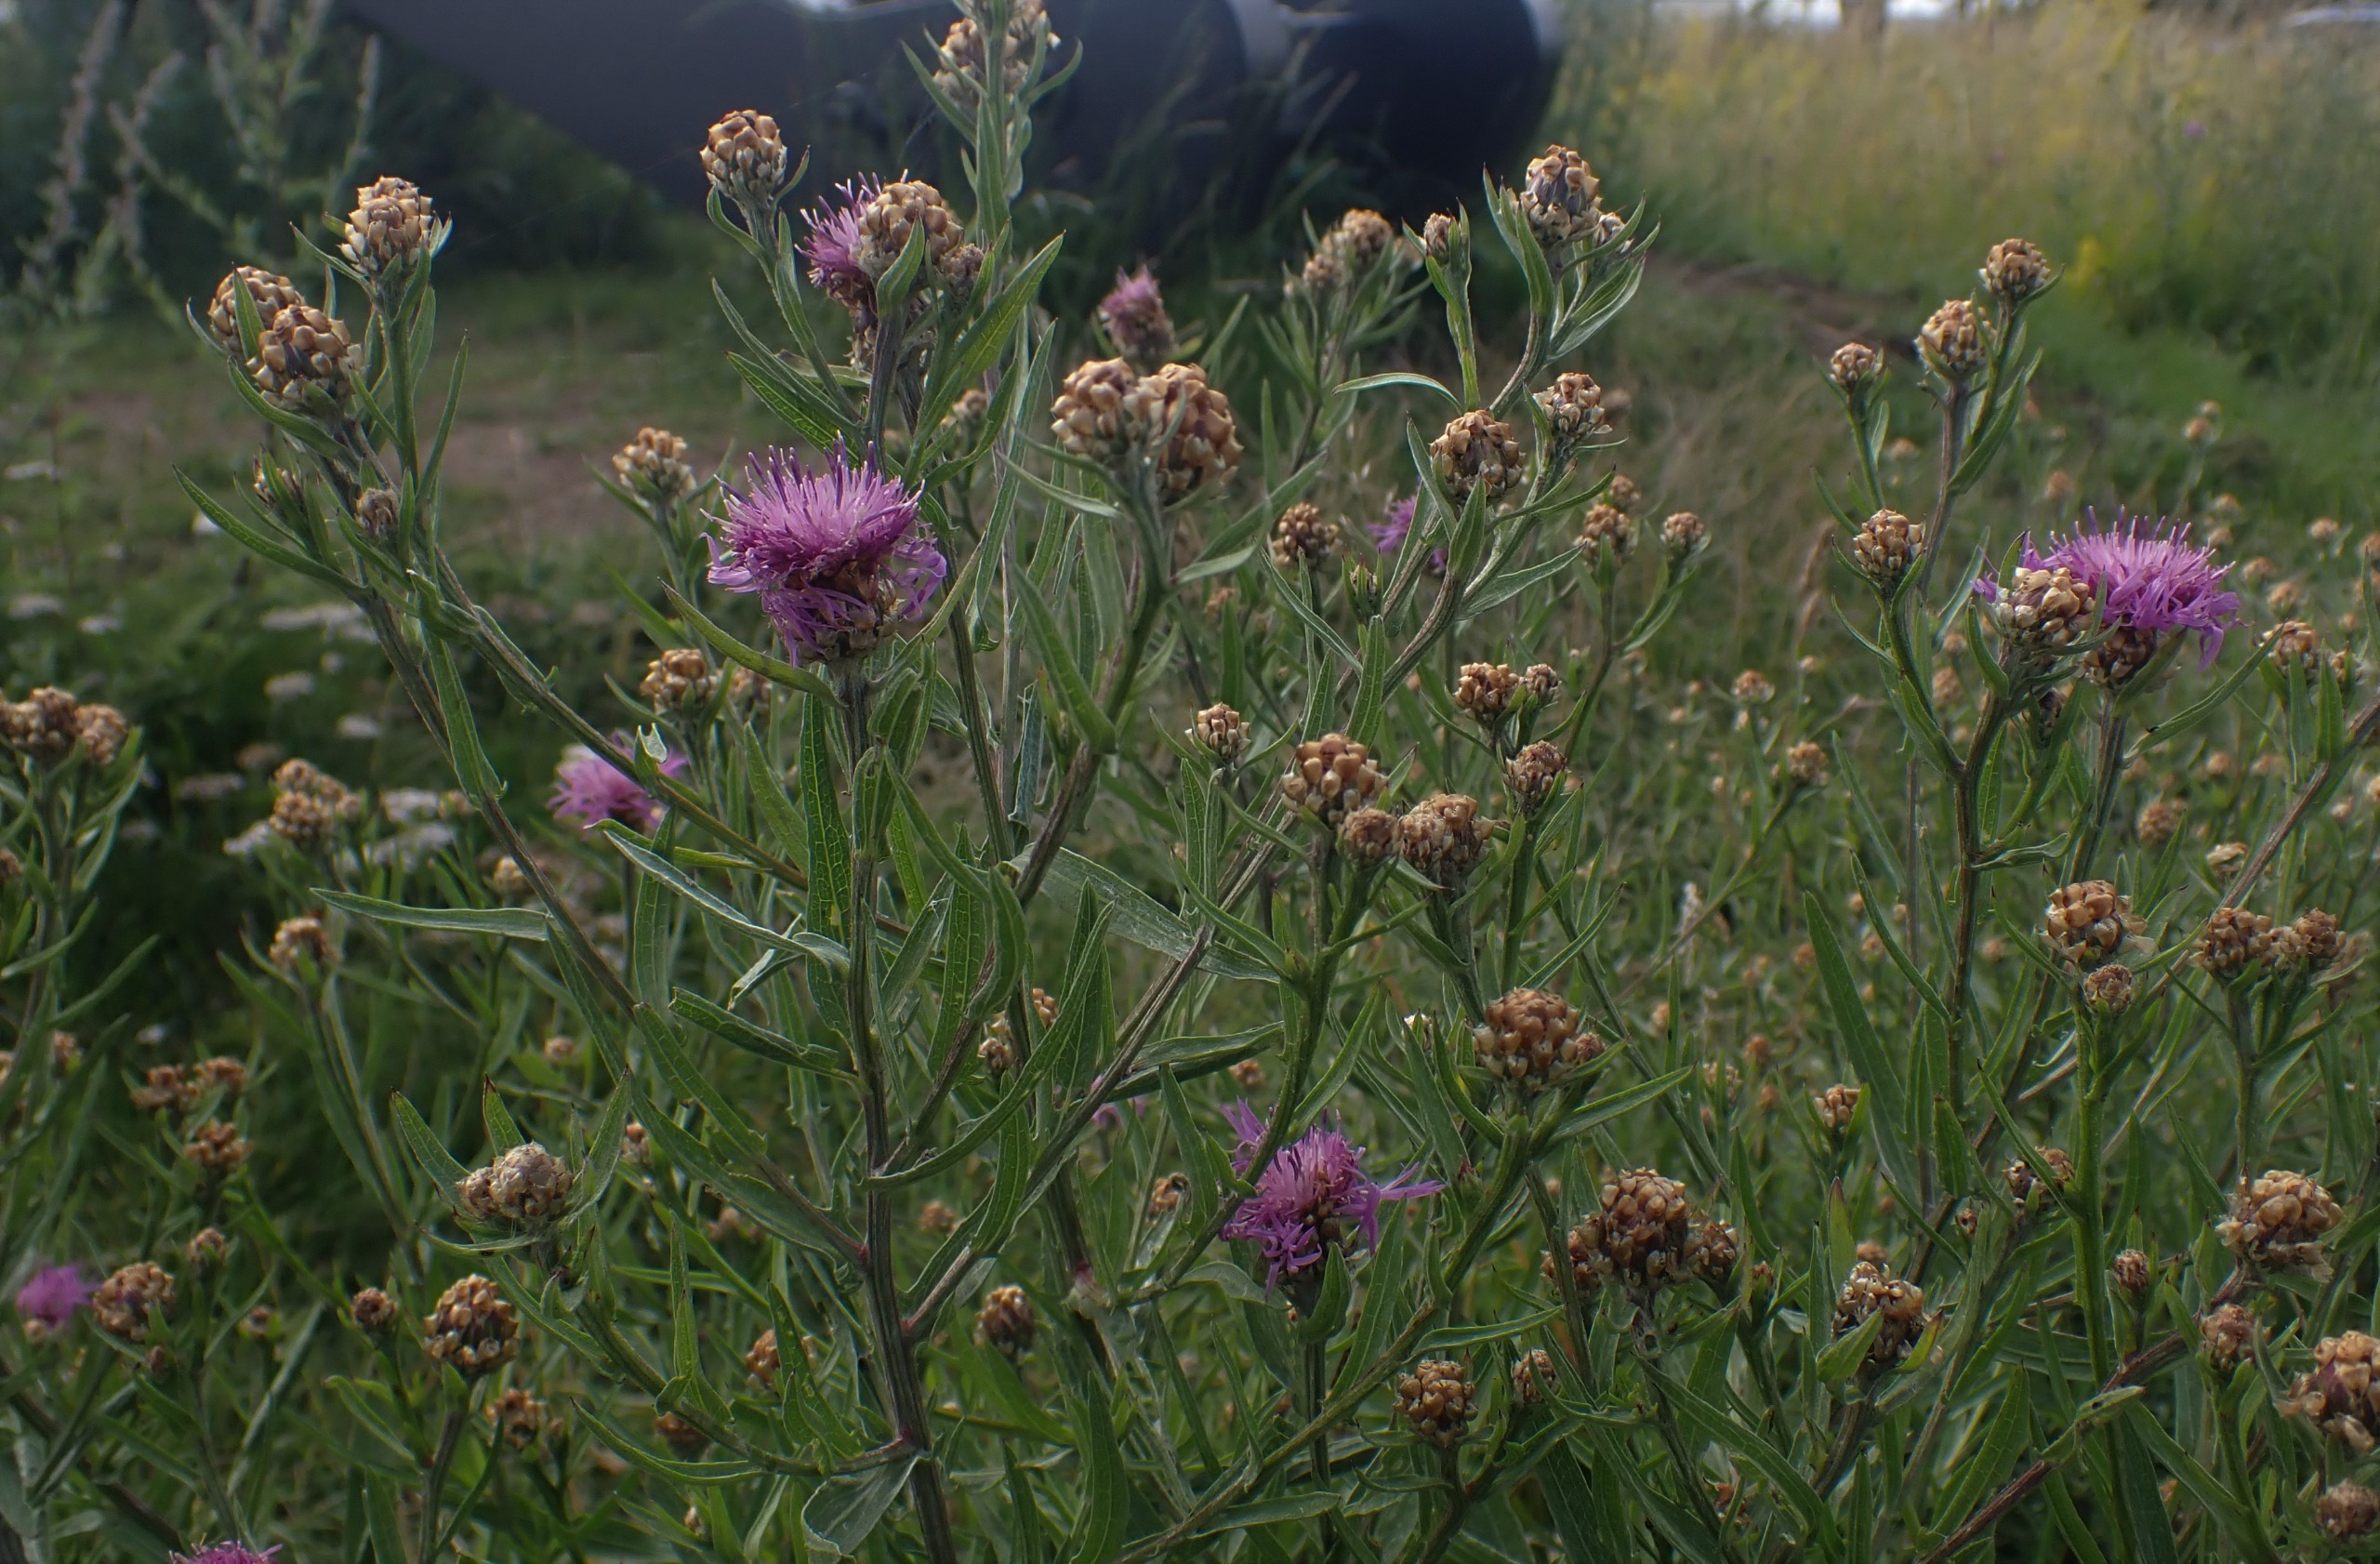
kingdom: Plantae
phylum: Tracheophyta
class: Magnoliopsida
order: Asterales
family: Asteraceae
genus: Centaurea
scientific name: Centaurea jacea
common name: Almindelig knopurt
